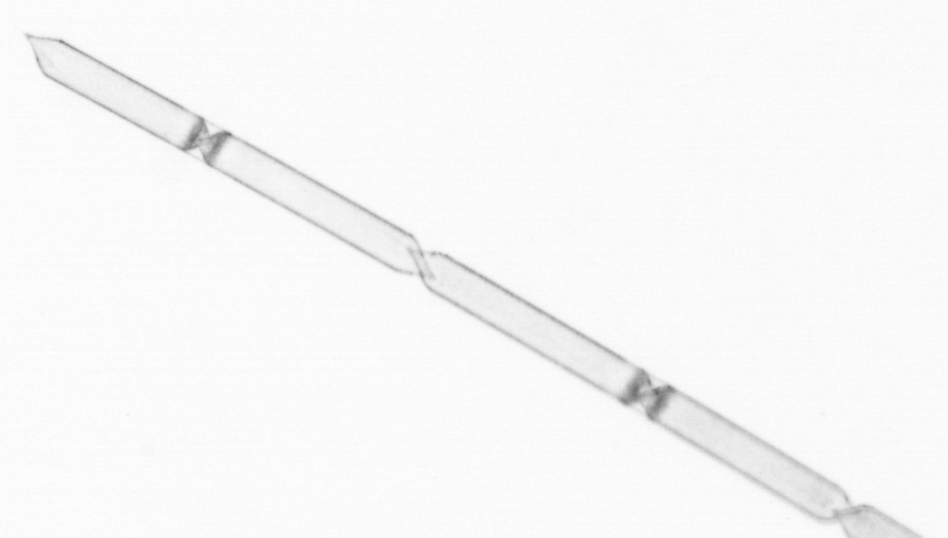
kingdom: Chromista
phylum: Ochrophyta
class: Bacillariophyceae
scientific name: Bacillariophyceae
